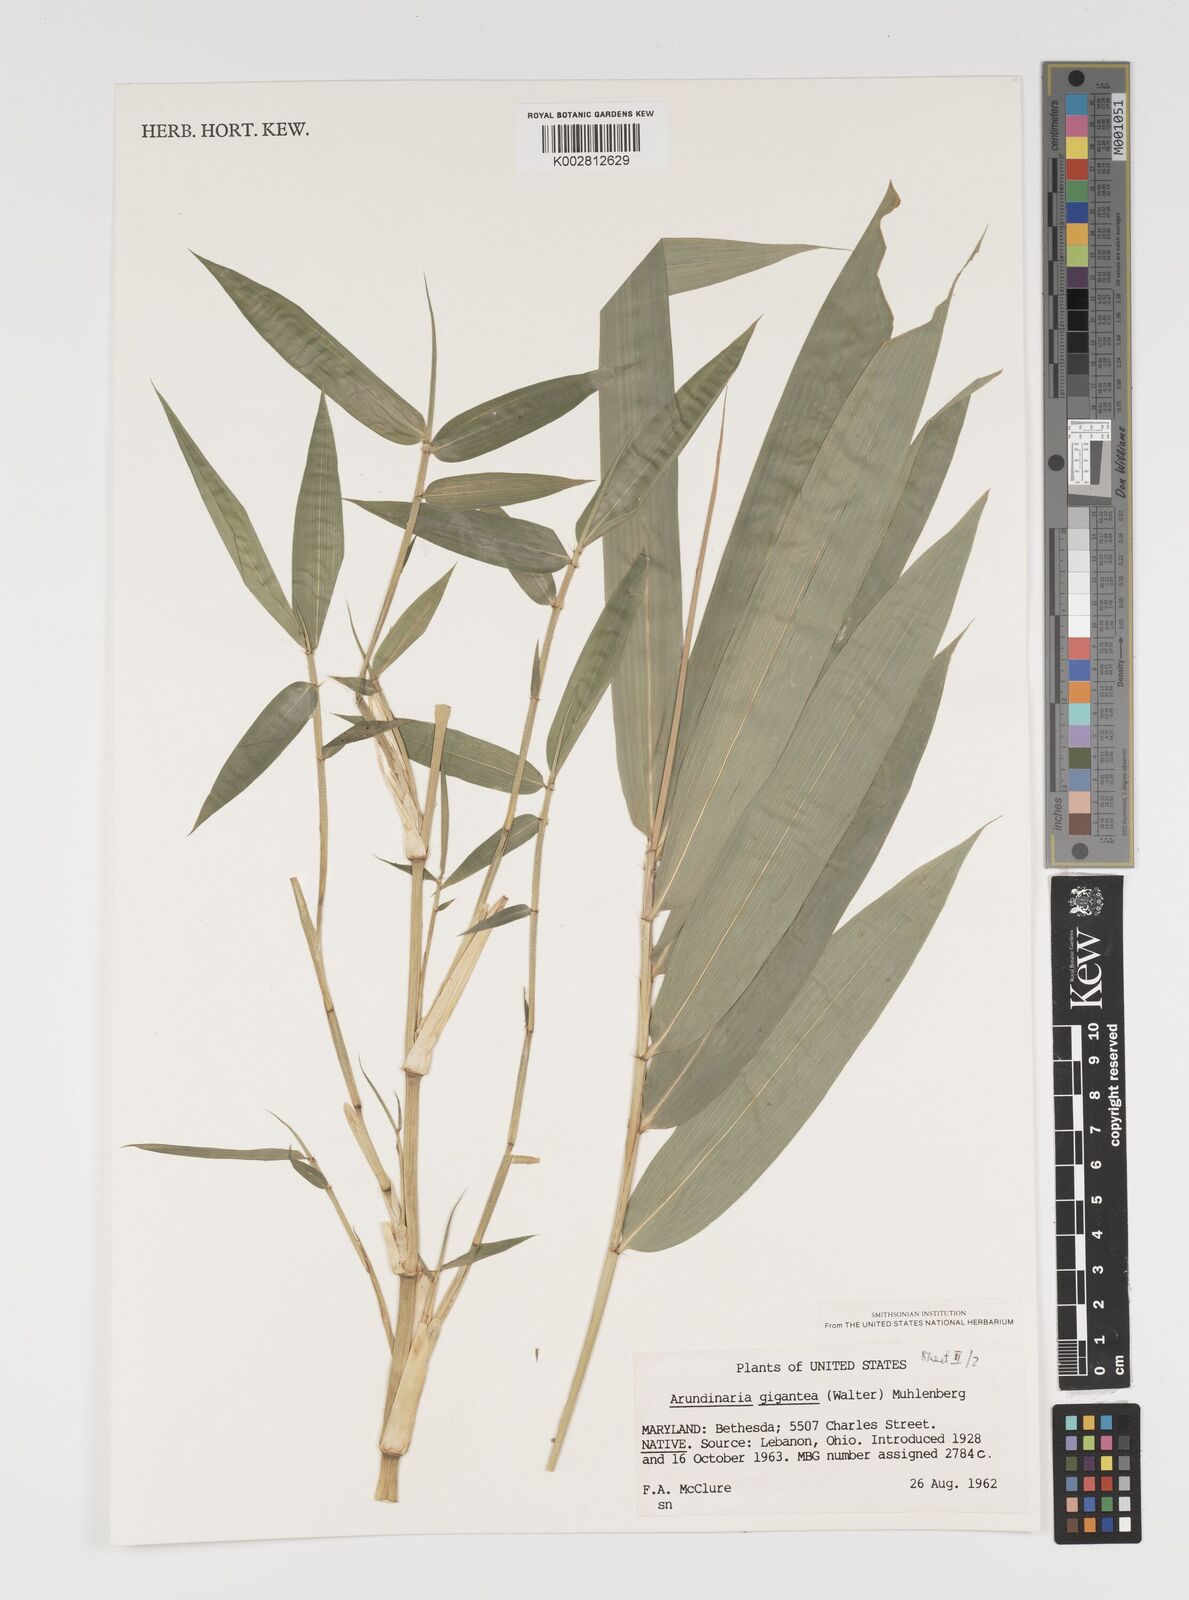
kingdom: Plantae
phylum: Tracheophyta
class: Liliopsida
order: Poales
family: Poaceae
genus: Arundinaria
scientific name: Arundinaria
